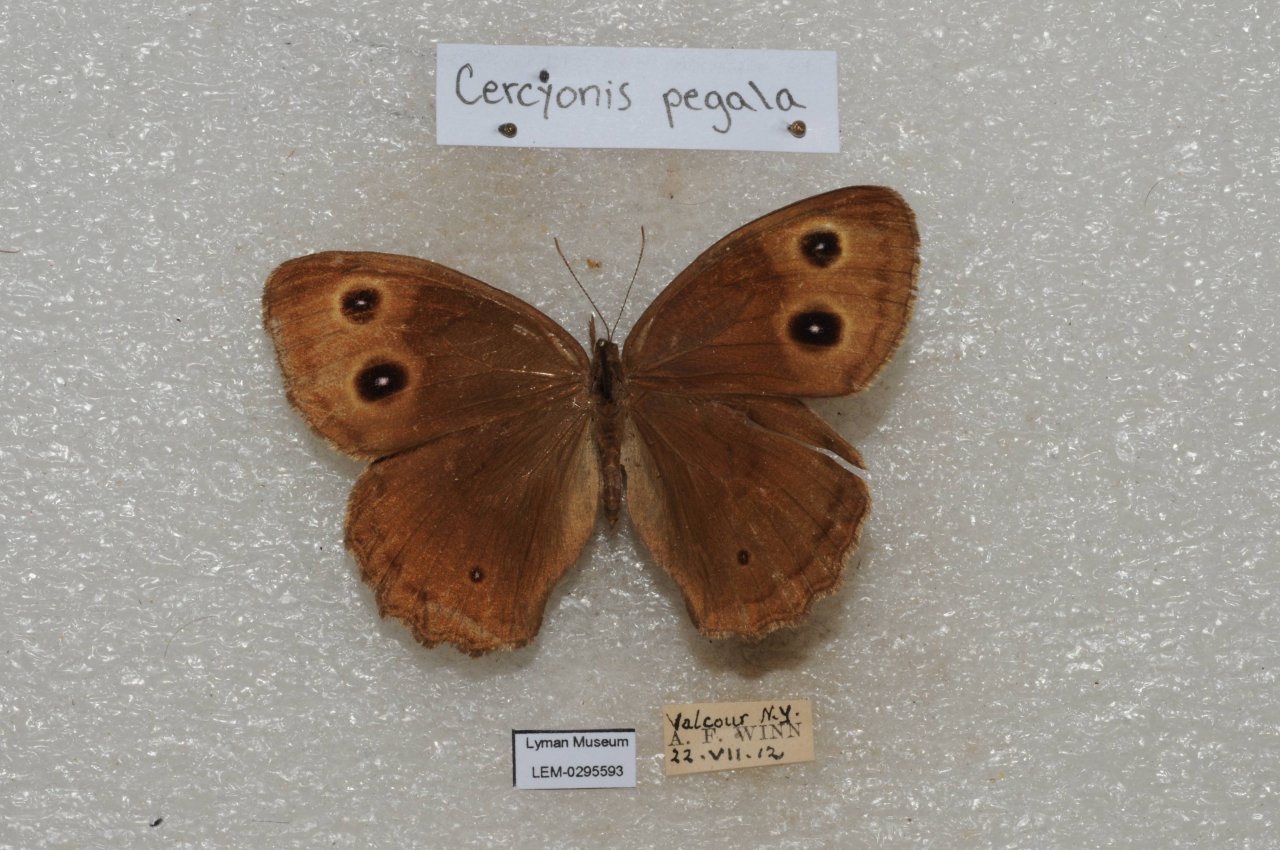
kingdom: Animalia
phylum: Arthropoda
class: Insecta
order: Lepidoptera
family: Nymphalidae
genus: Cercyonis
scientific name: Cercyonis pegala
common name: Common Wood-Nymph
